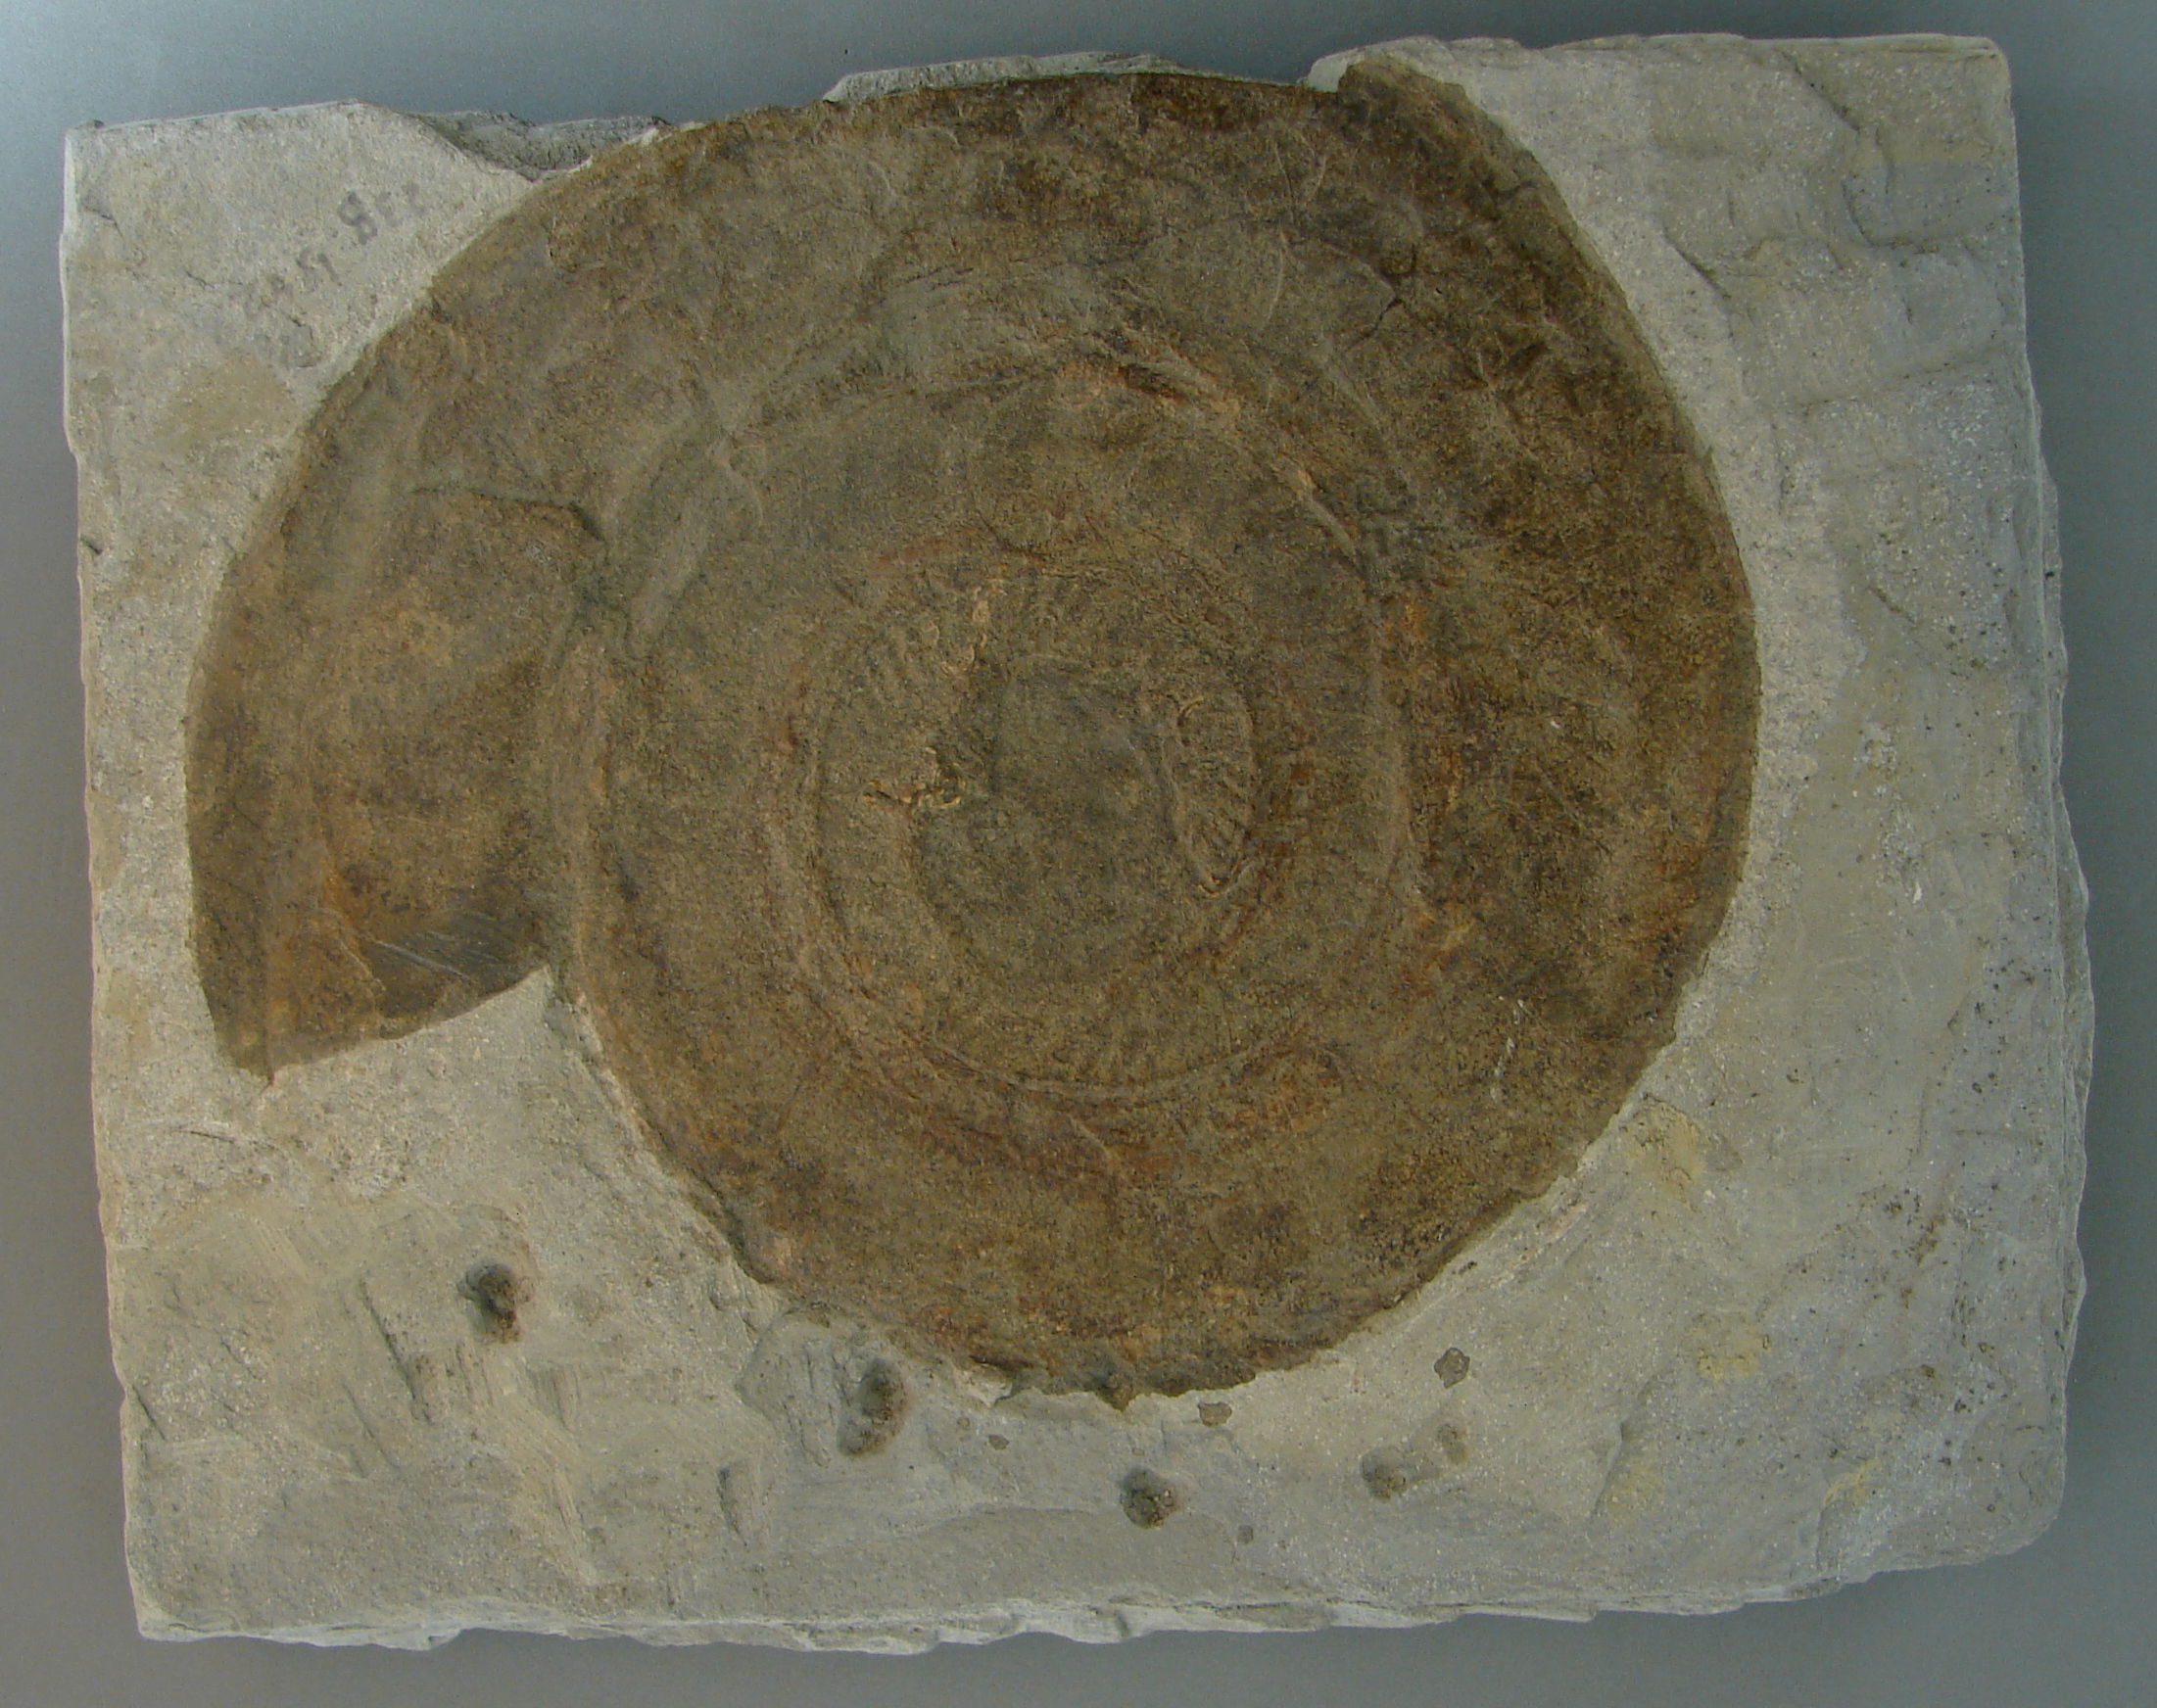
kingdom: Animalia
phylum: Mollusca
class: Cephalopoda
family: Hildoceratidae
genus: Hildoceras
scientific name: Hildoceras sublevisoni
